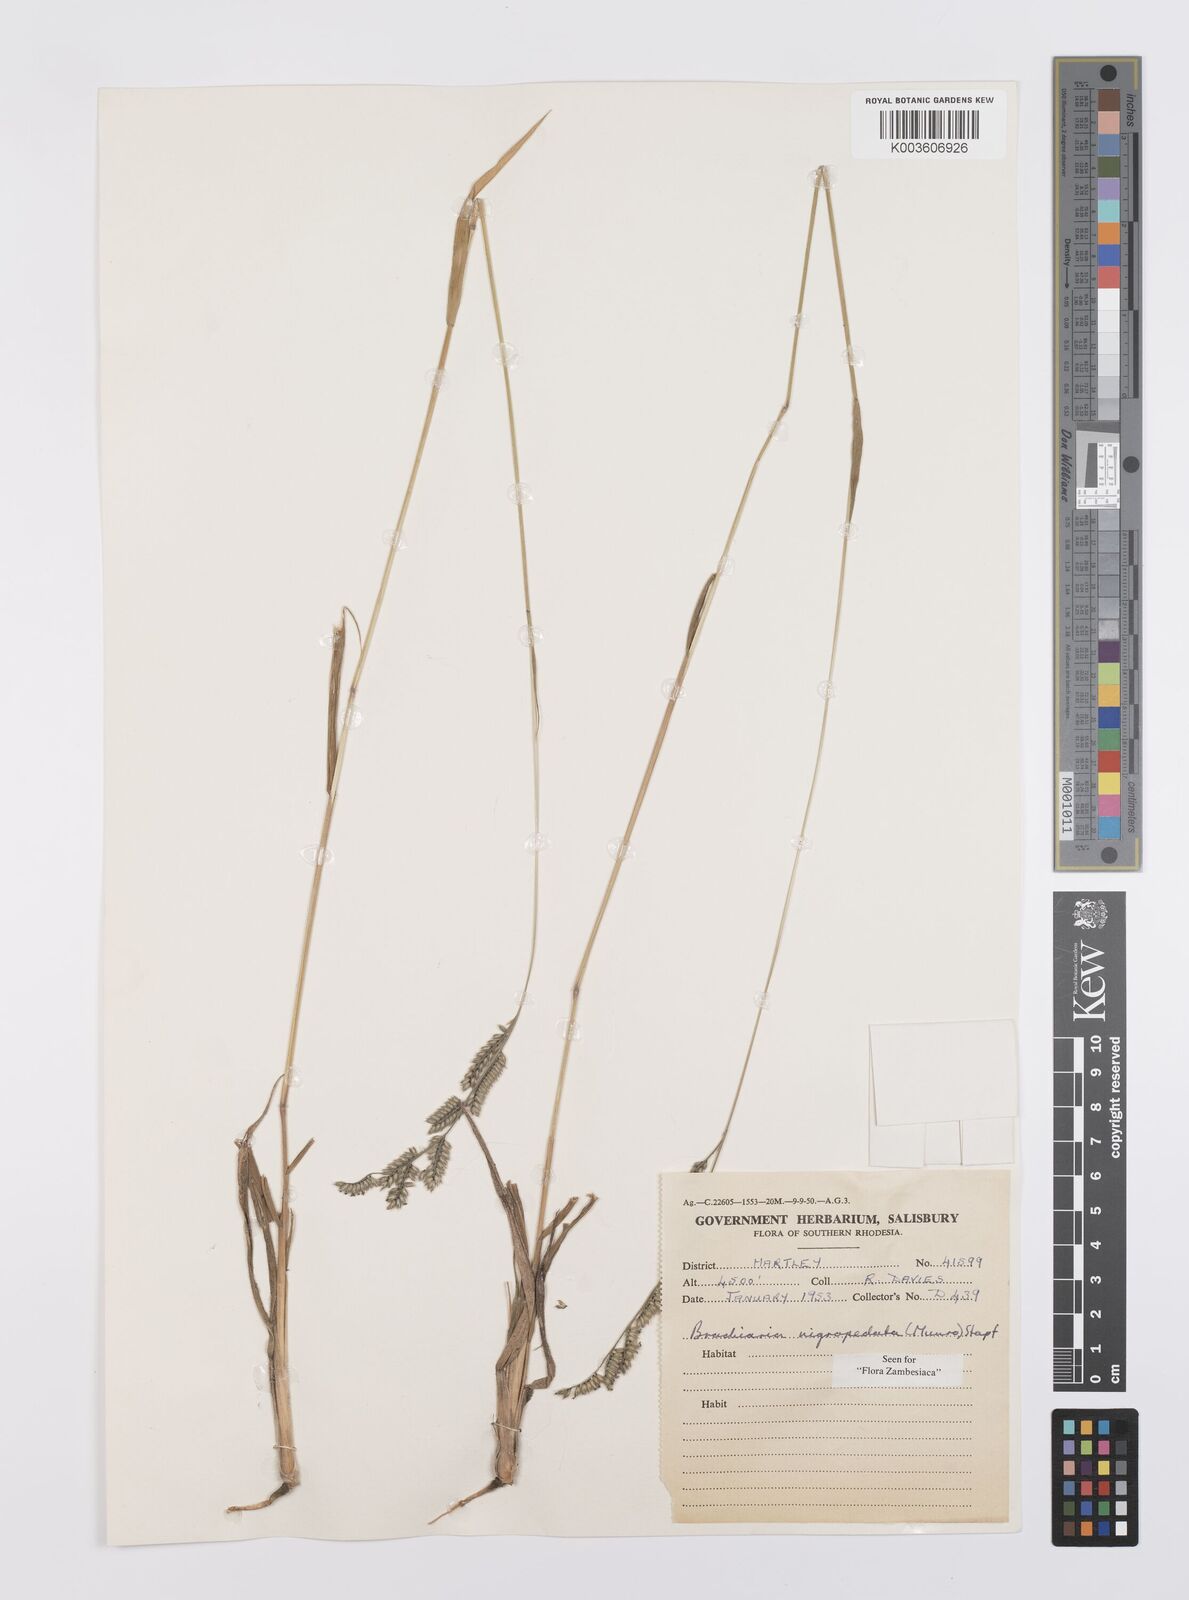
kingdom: Plantae
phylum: Tracheophyta
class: Liliopsida
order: Poales
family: Poaceae
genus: Urochloa
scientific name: Urochloa nigropedata
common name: Spotted signal grass
